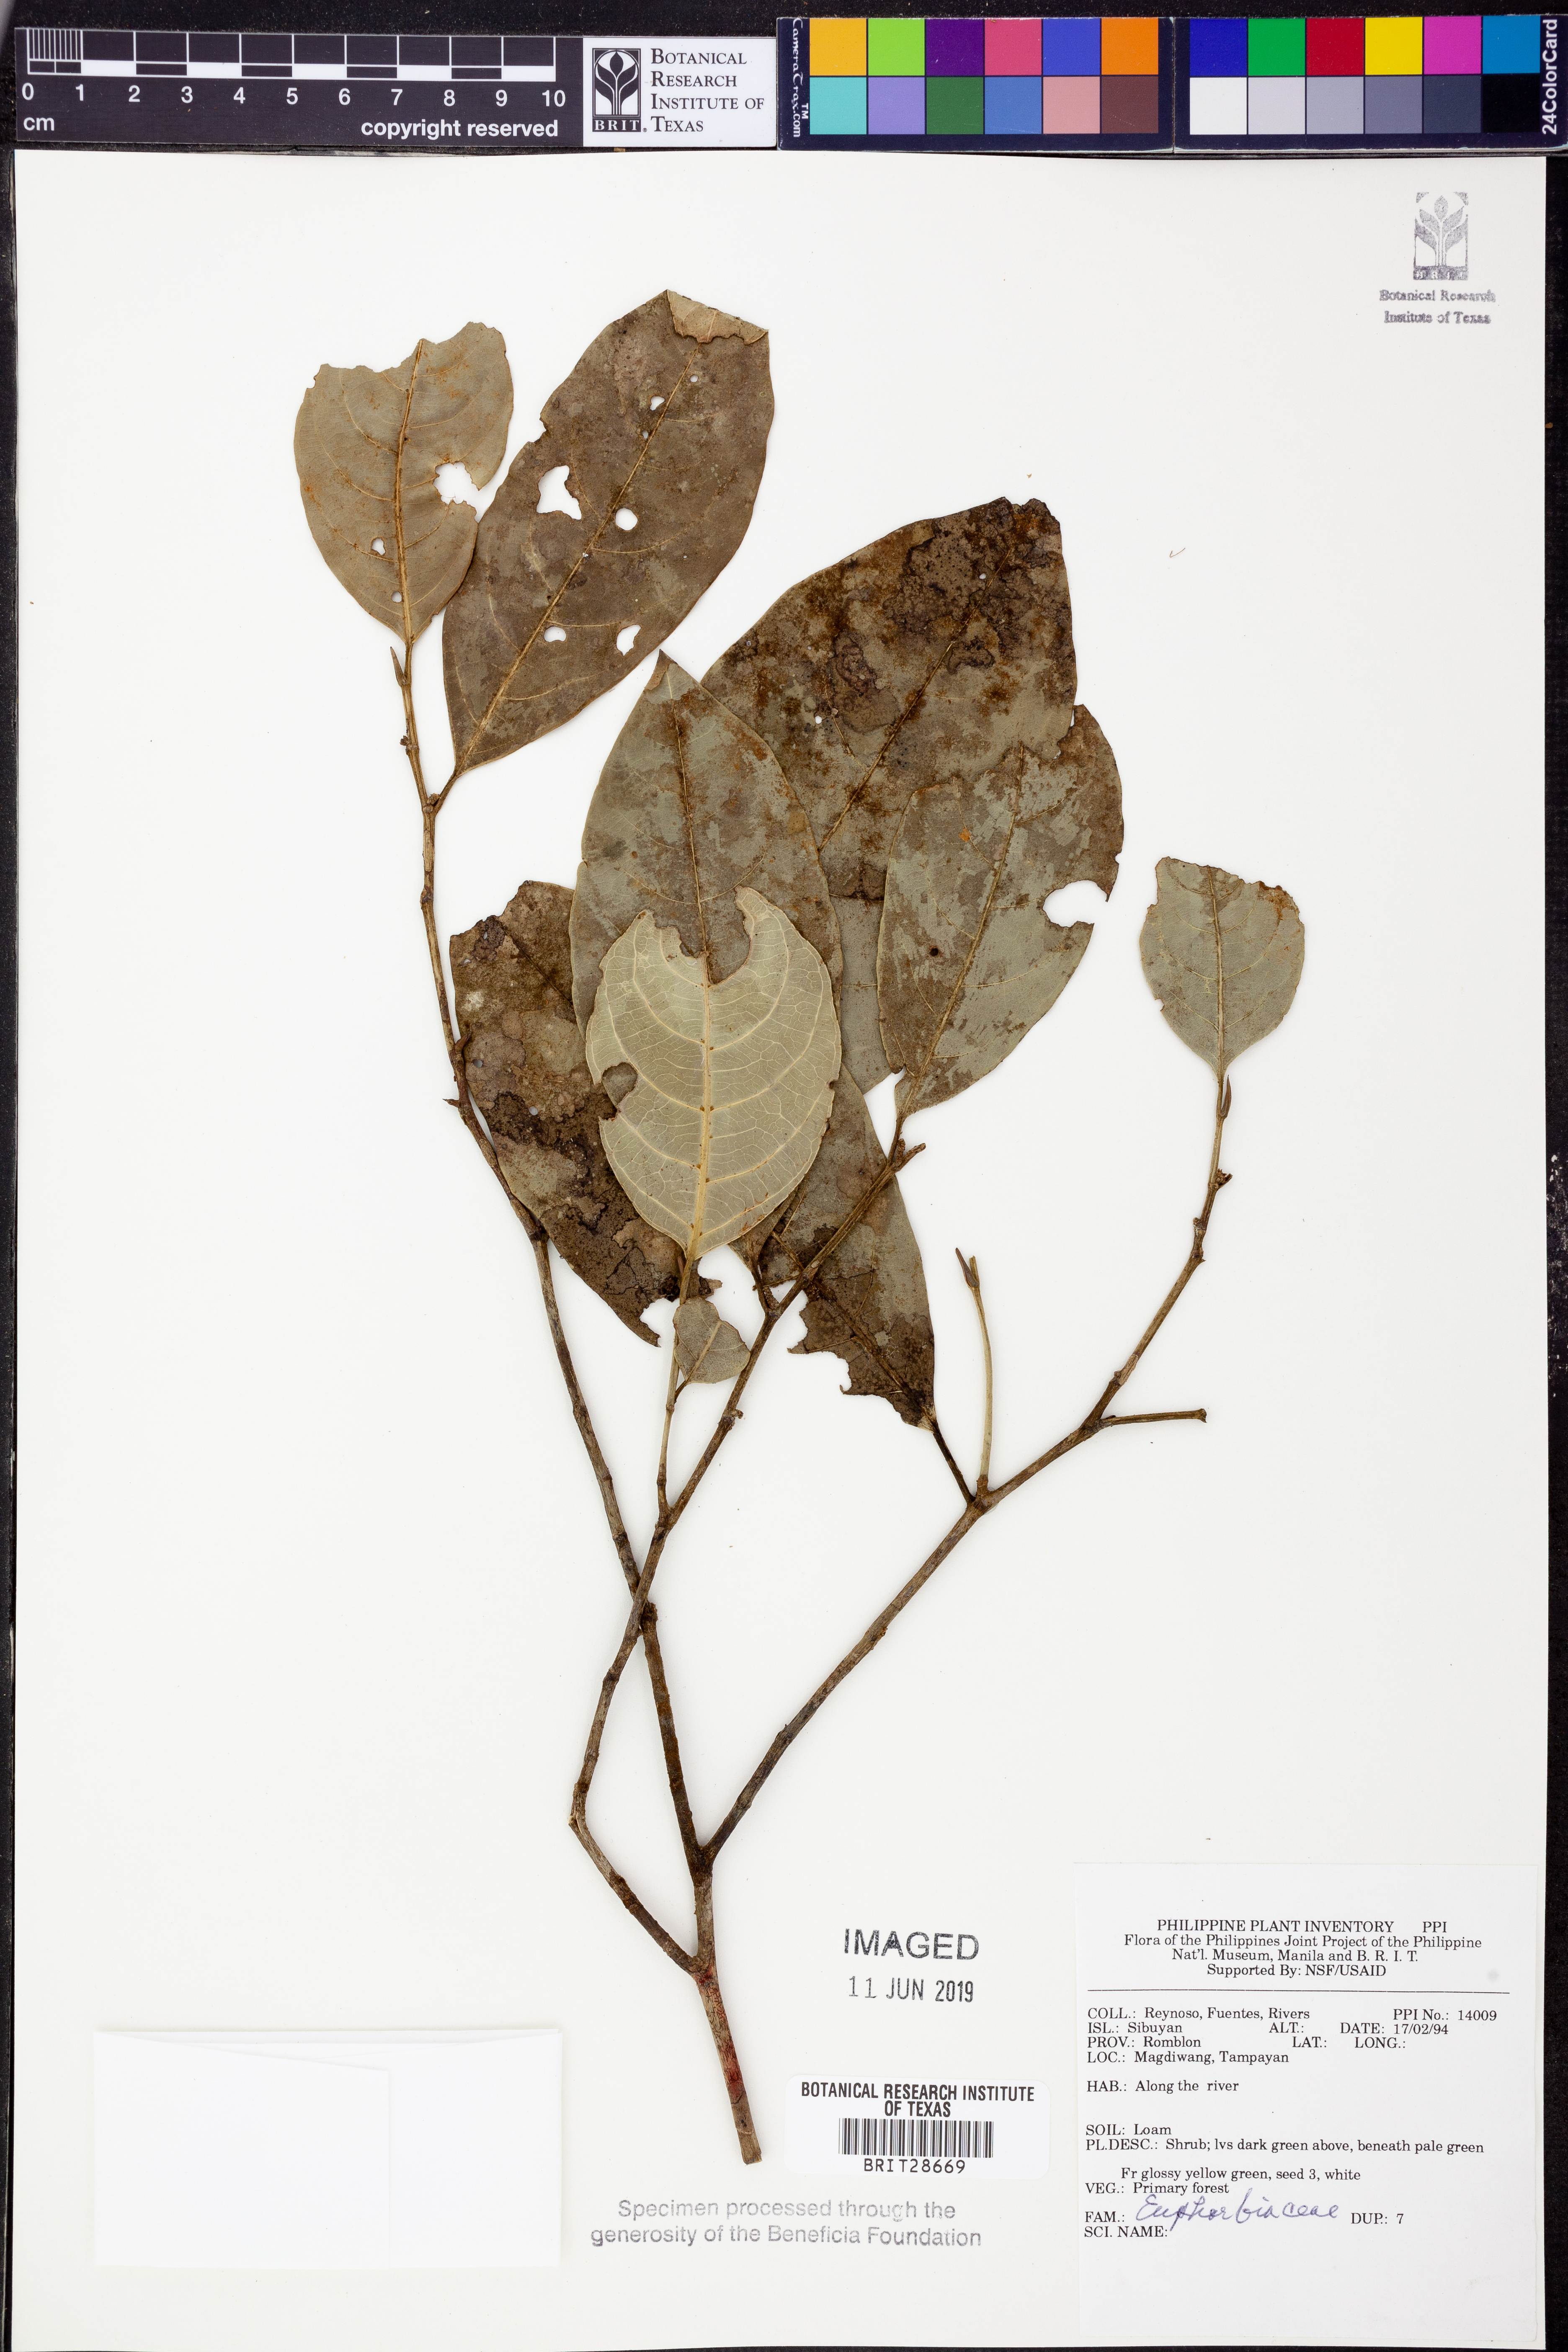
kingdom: Plantae
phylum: Tracheophyta
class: Magnoliopsida
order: Malpighiales
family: Euphorbiaceae
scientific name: Euphorbiaceae
